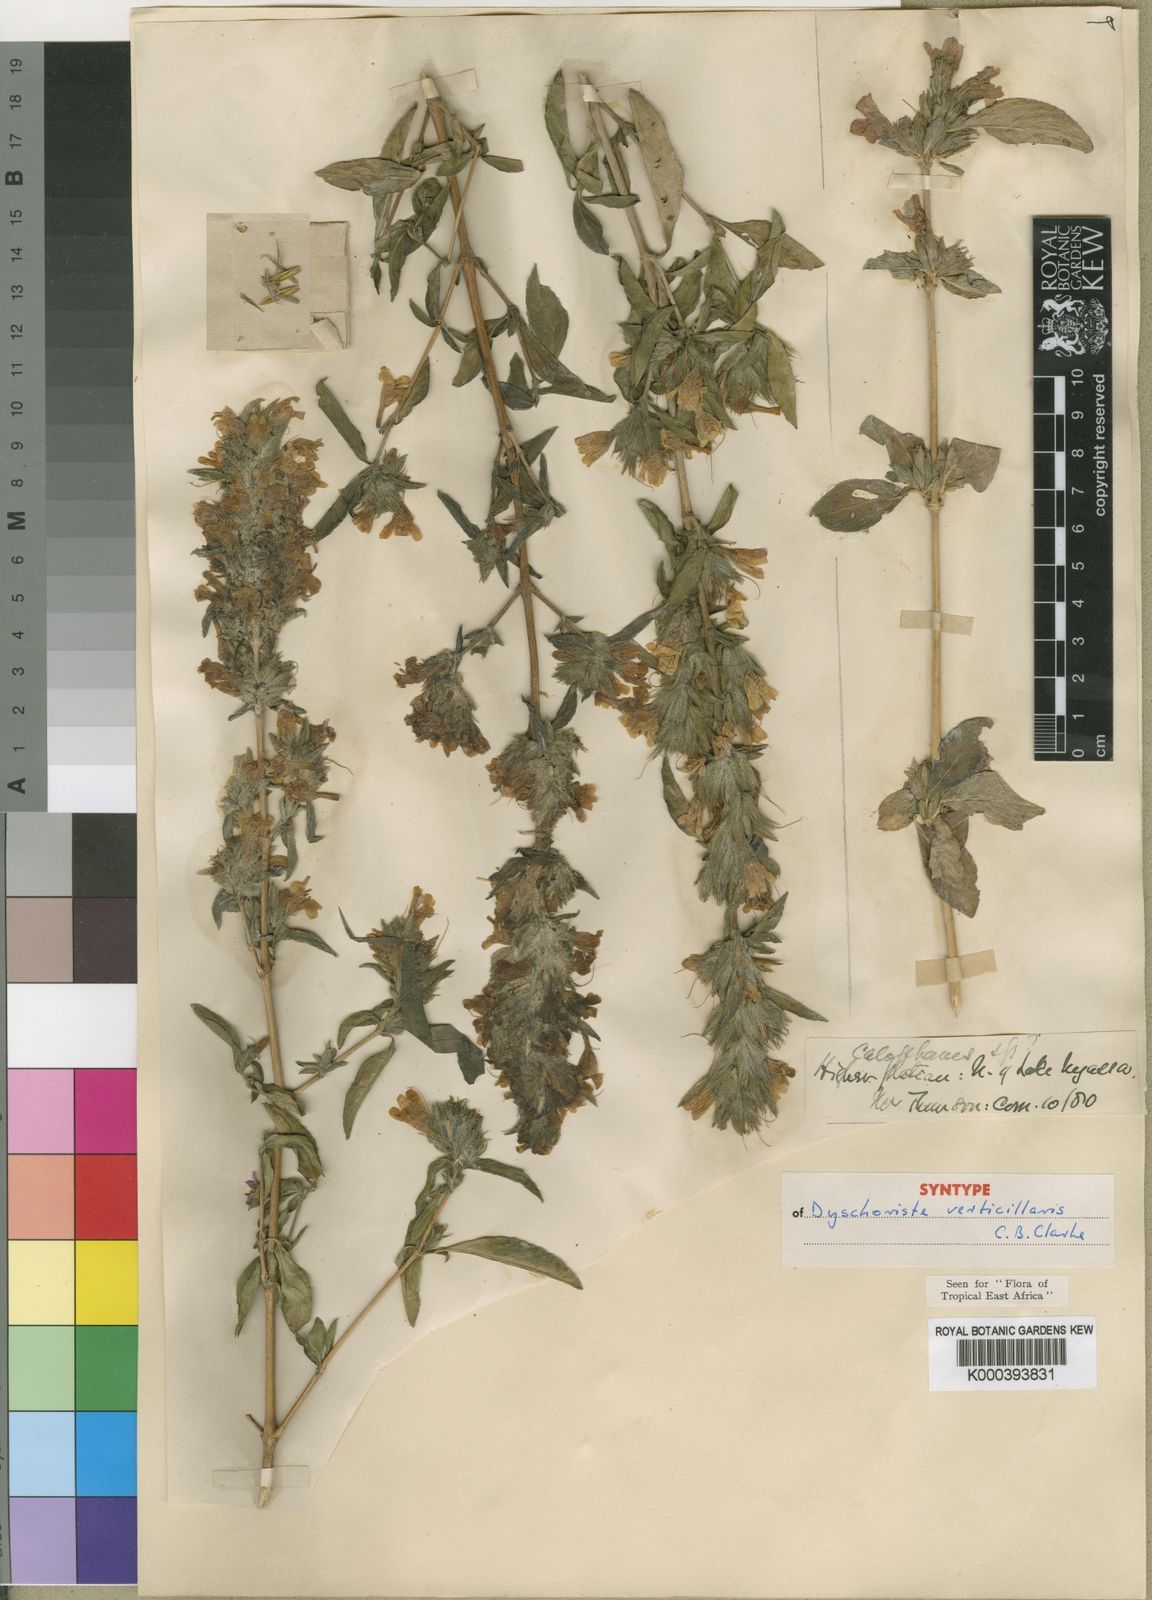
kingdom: Plantae
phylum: Tracheophyta
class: Magnoliopsida
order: Lamiales
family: Acanthaceae
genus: Dyschoriste
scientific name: Dyschoriste trichocalyx
